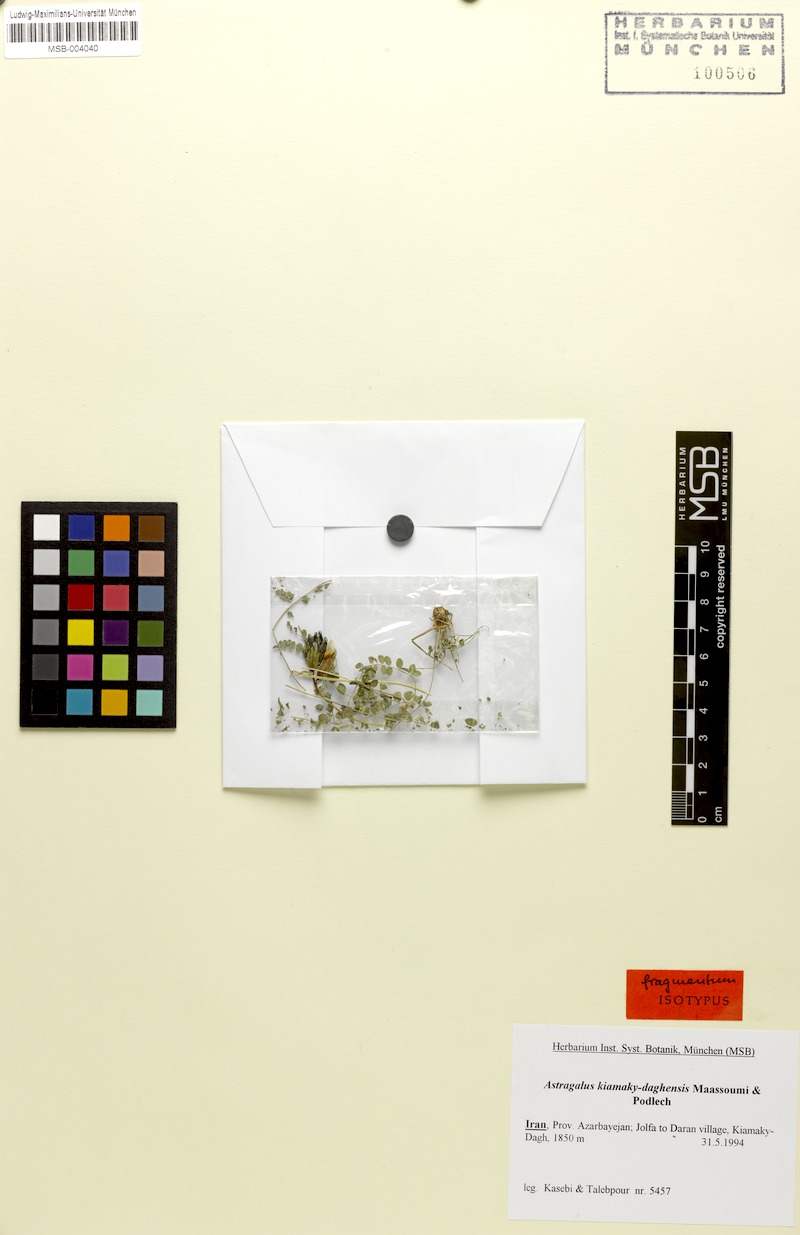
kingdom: Plantae
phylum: Tracheophyta
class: Magnoliopsida
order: Fabales
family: Fabaceae
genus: Astragalus
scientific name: Astragalus kiamaky-daghensis
